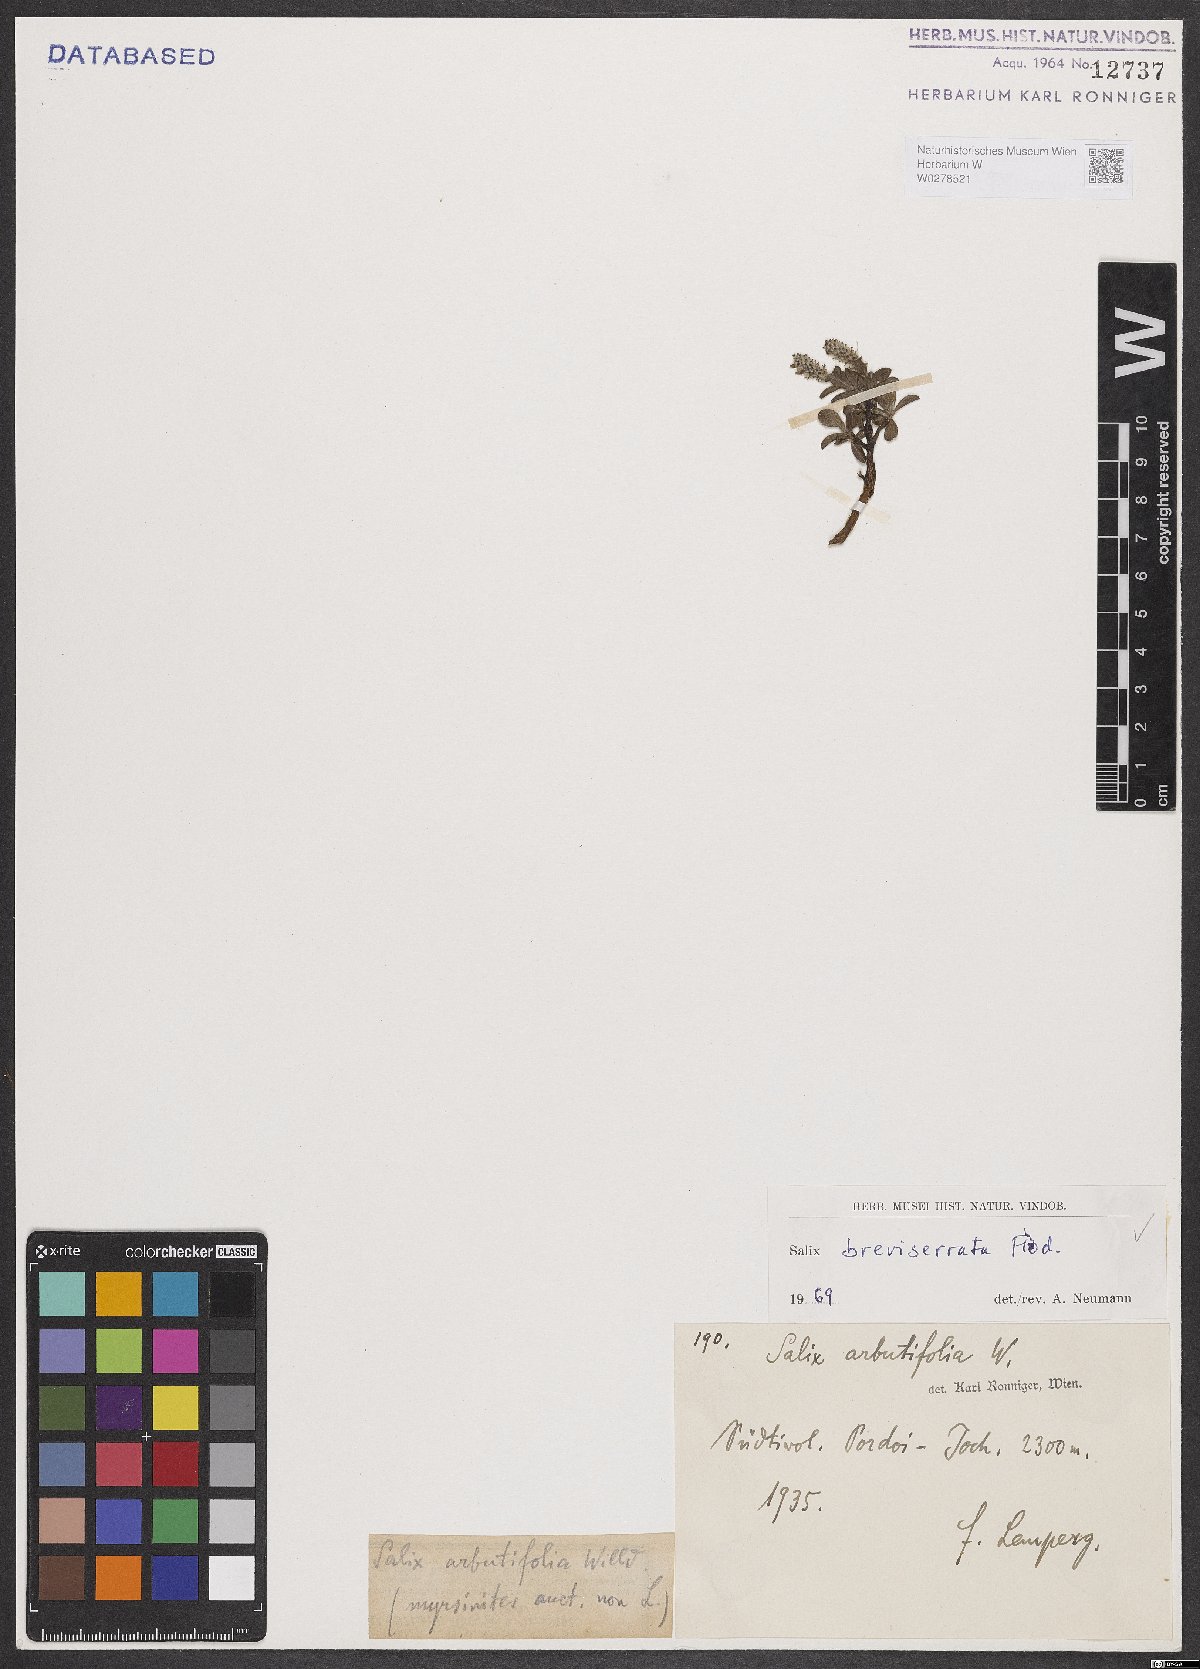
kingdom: Plantae
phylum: Tracheophyta
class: Magnoliopsida
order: Malpighiales
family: Salicaceae
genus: Salix
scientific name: Salix breviserrata
